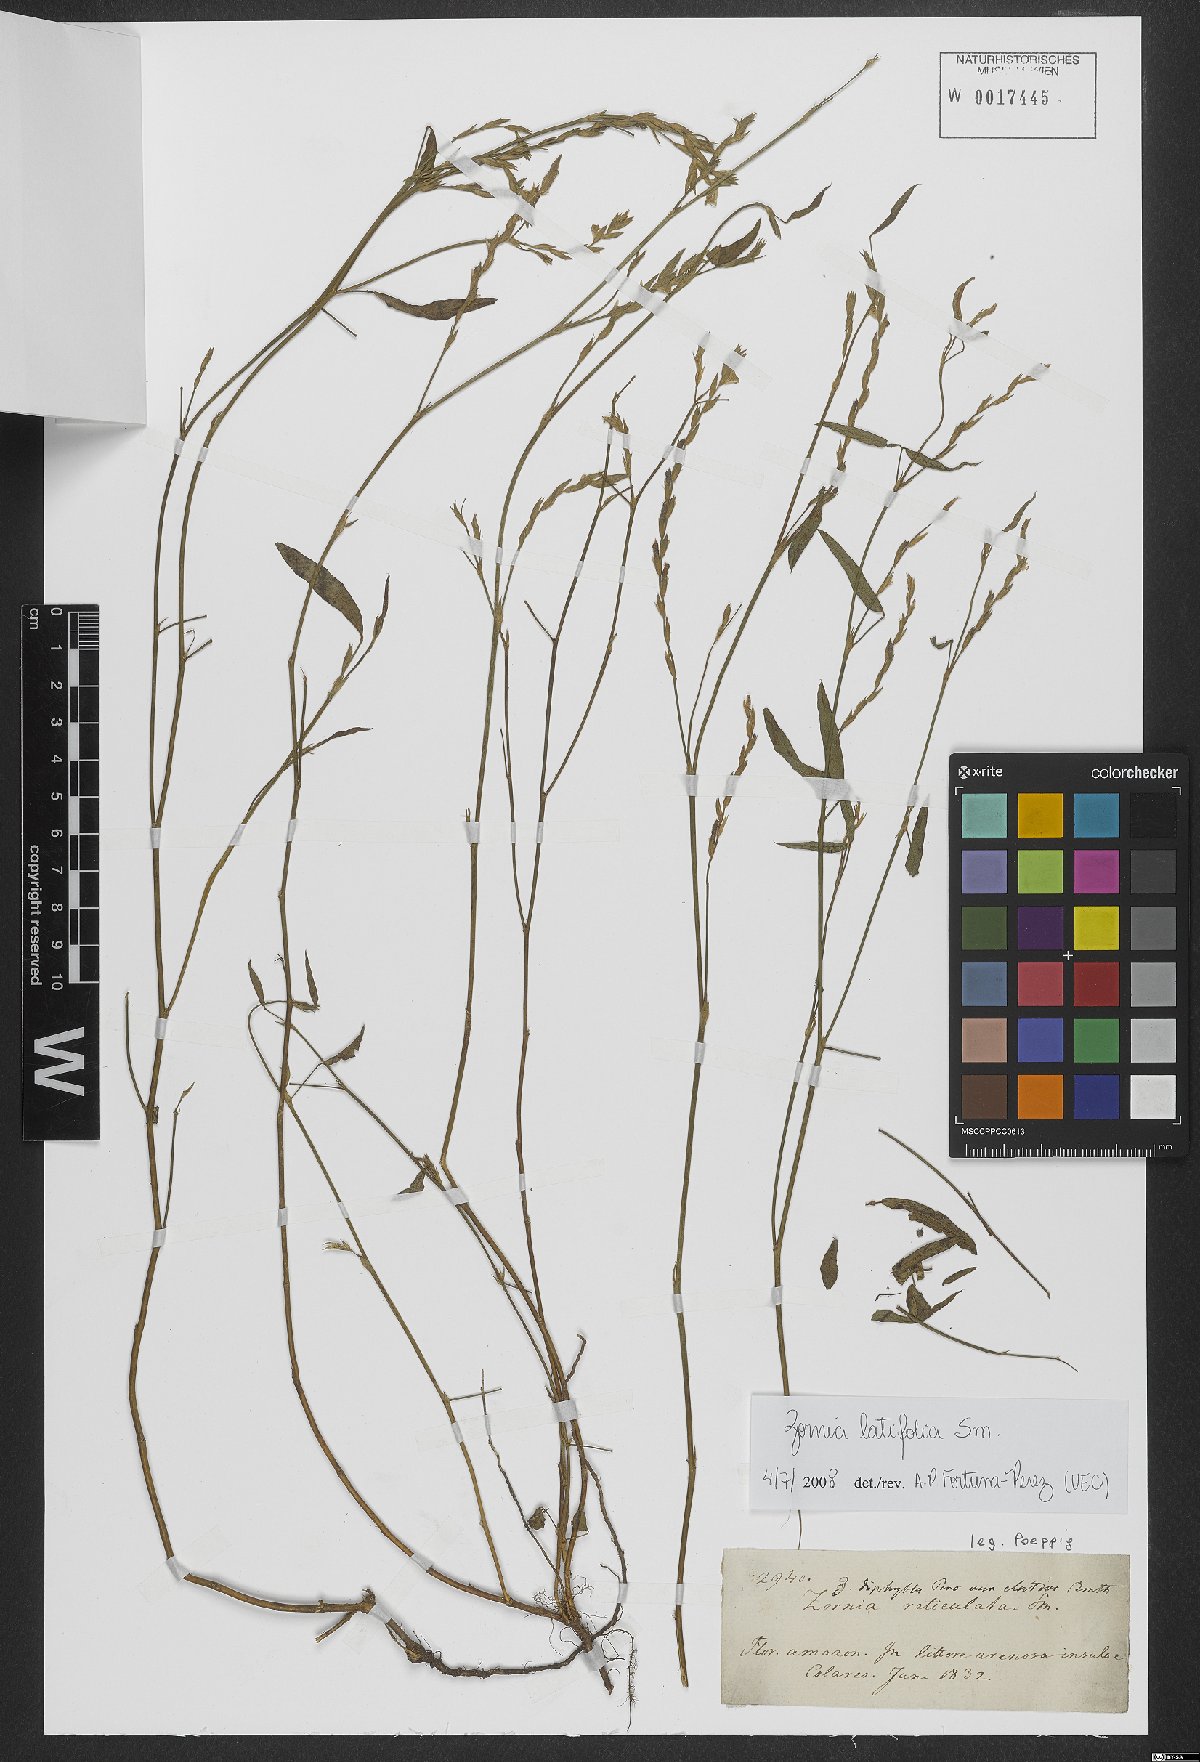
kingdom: Plantae
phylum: Tracheophyta
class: Magnoliopsida
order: Fabales
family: Fabaceae
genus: Zornia
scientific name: Zornia sericea
